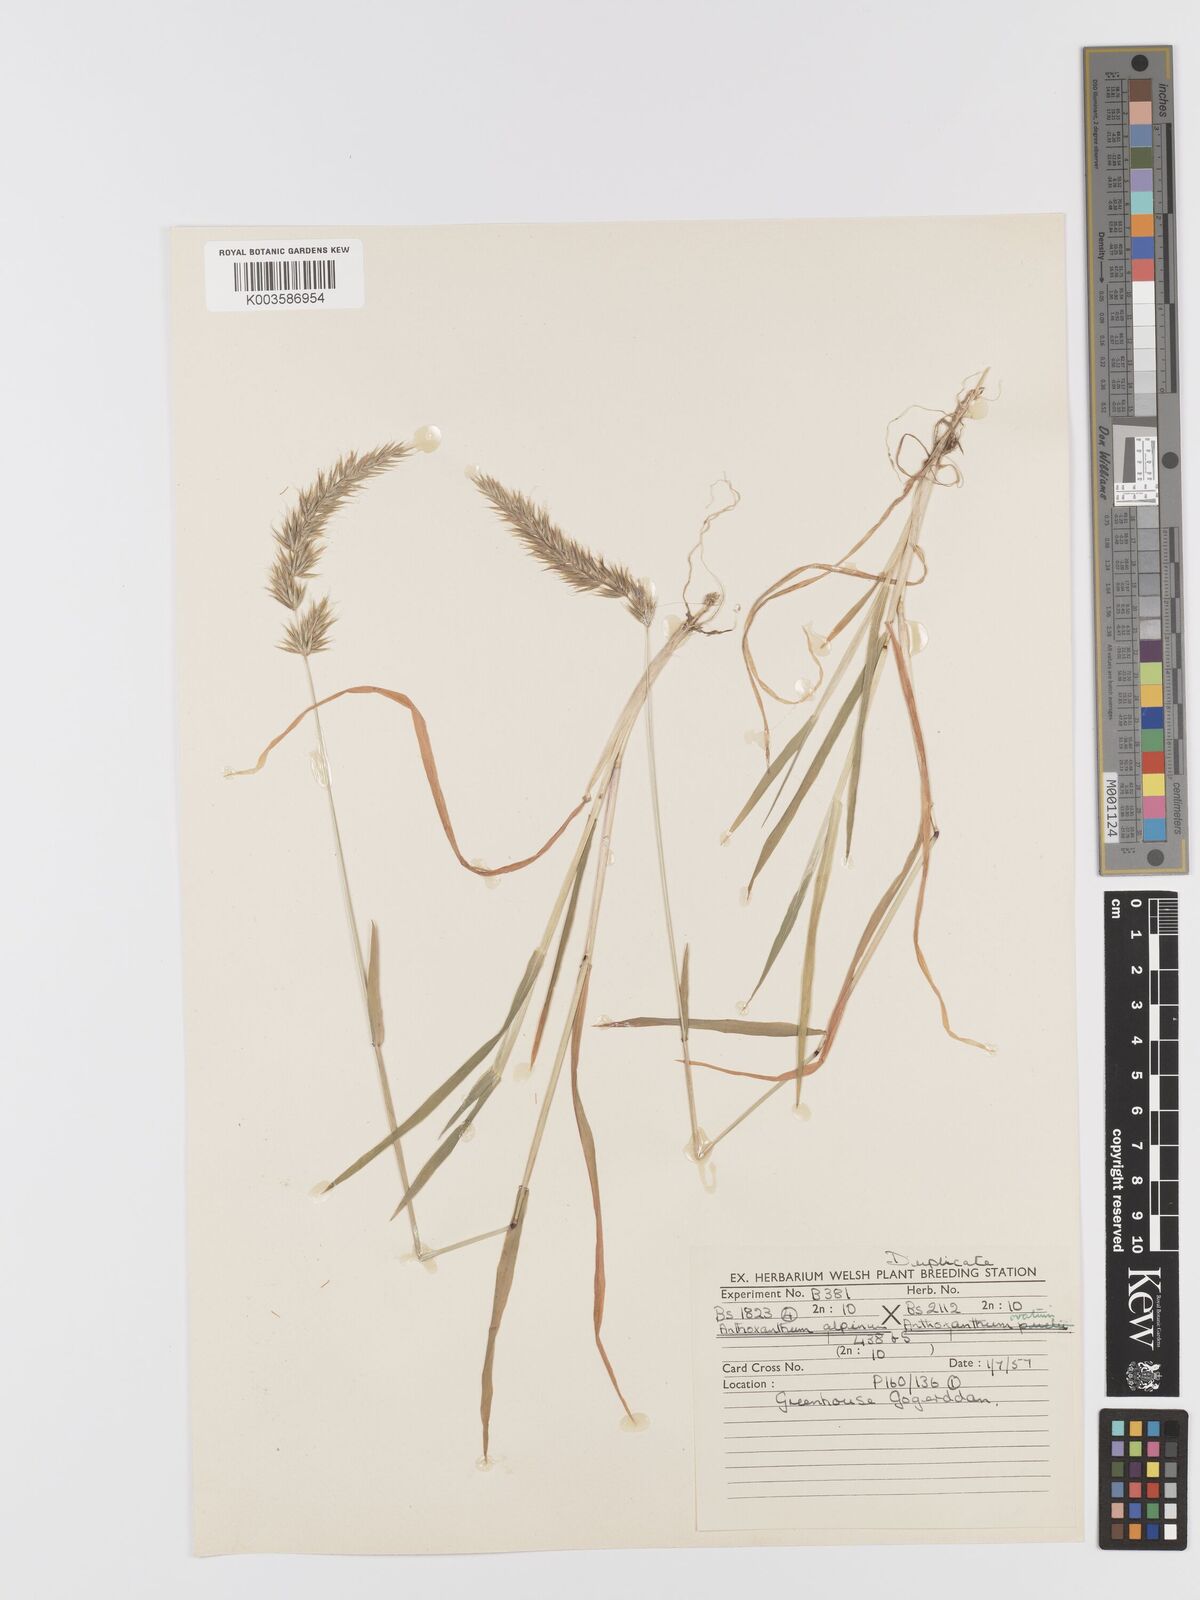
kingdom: Plantae
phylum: Tracheophyta
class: Liliopsida
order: Poales
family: Poaceae
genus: Anthoxanthum
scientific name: Anthoxanthum nipponicum
